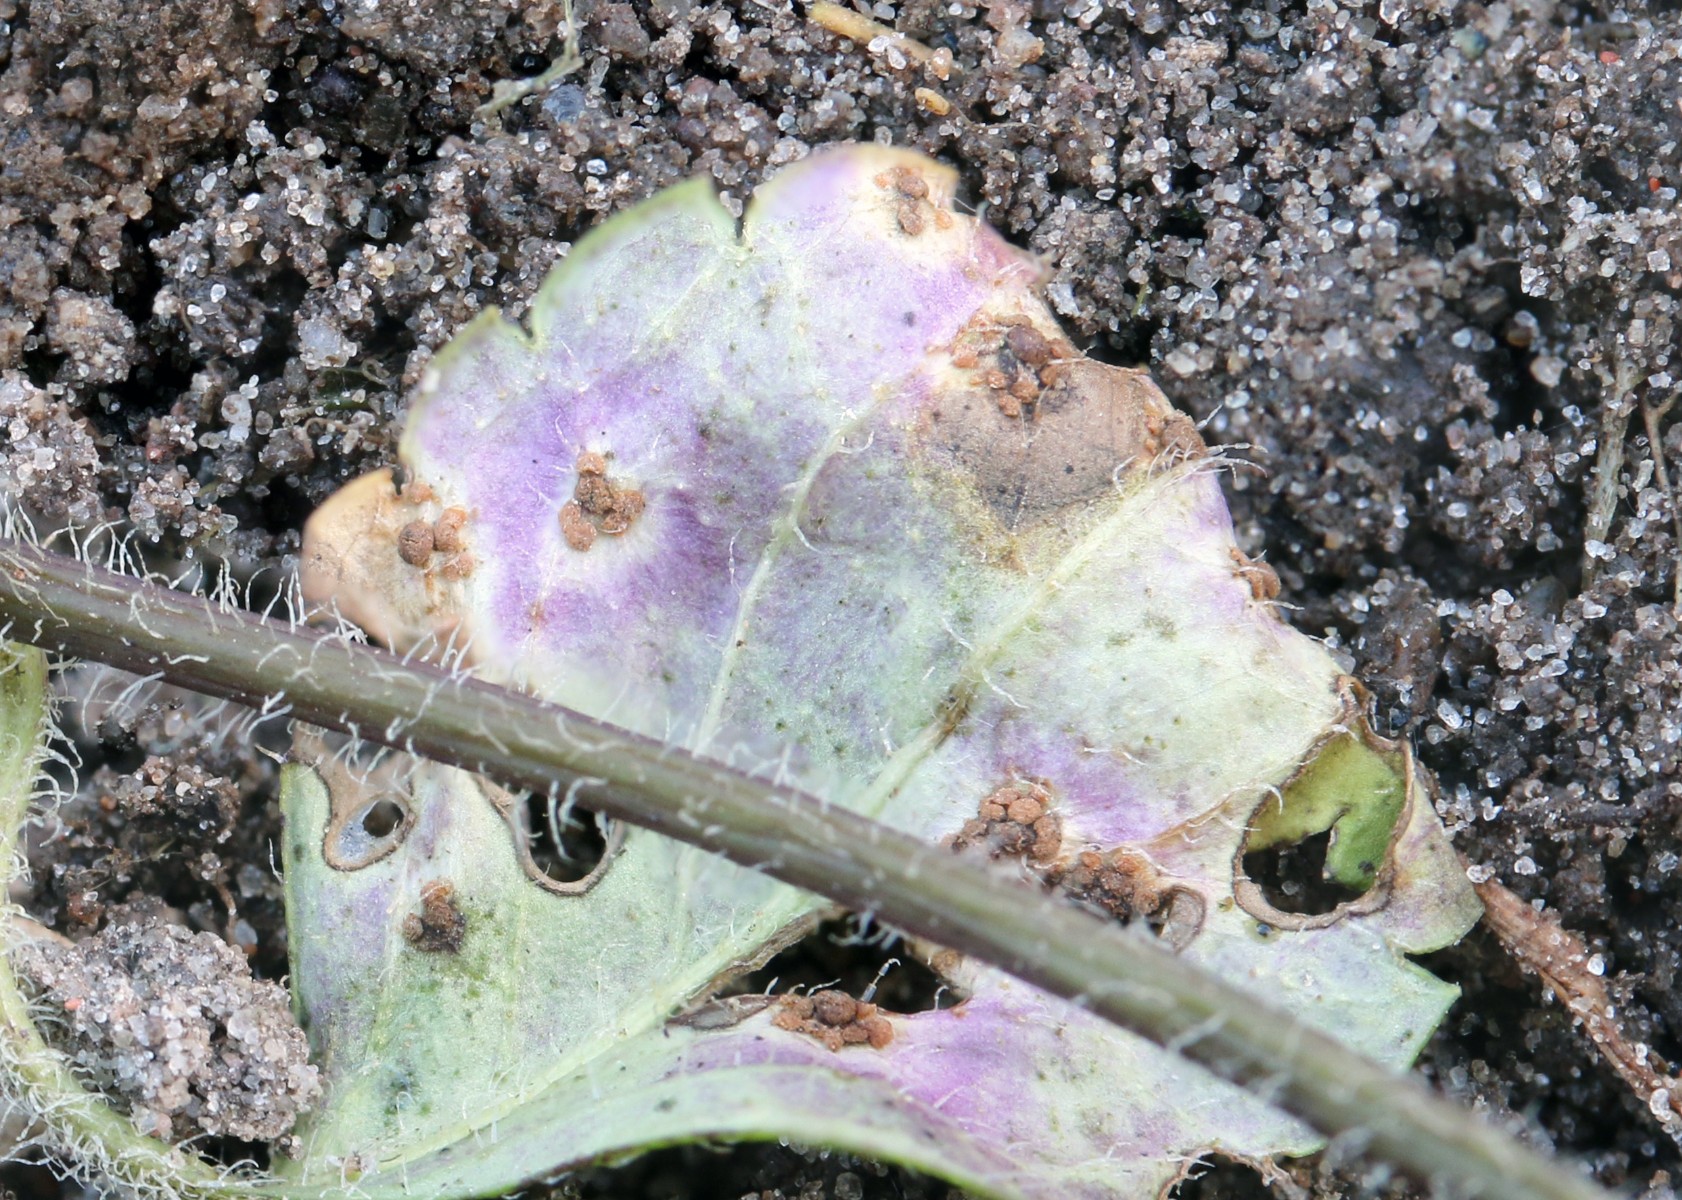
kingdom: Fungi
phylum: Basidiomycota
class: Pucciniomycetes
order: Pucciniales
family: Pucciniaceae
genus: Puccinia
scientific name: Puccinia veronicae
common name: Wood speedwell rust
